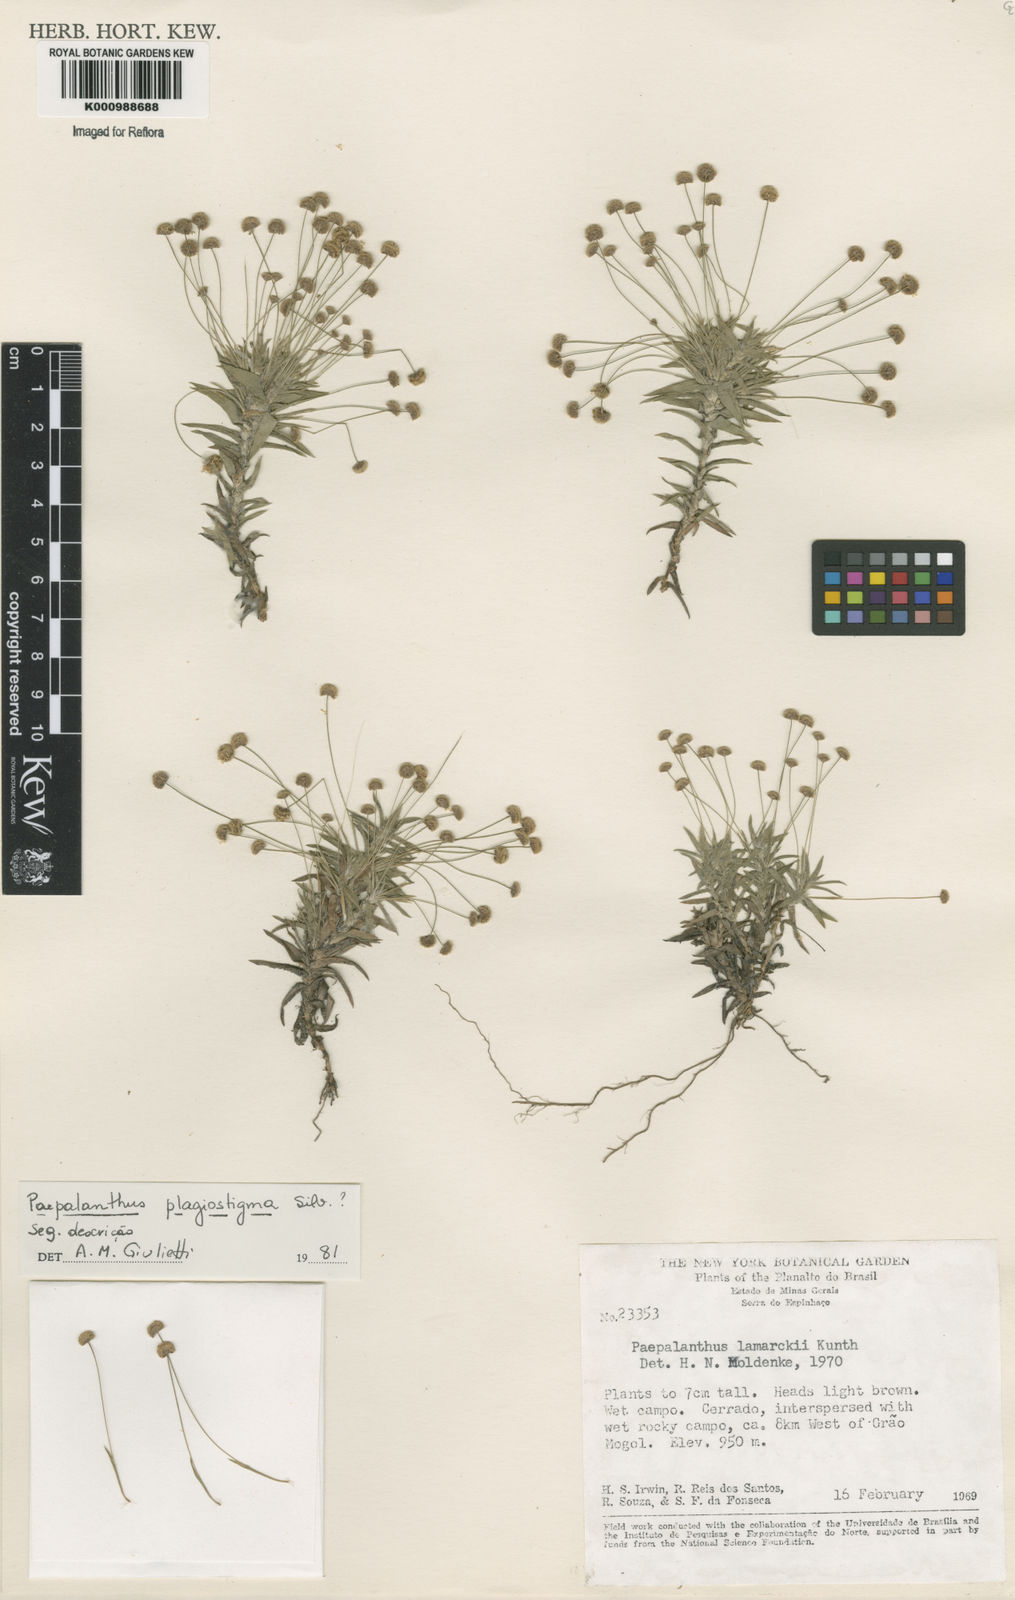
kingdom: Plantae
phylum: Tracheophyta
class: Liliopsida
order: Poales
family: Eriocaulaceae
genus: Paepalanthus
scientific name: Paepalanthus plagiostigma
